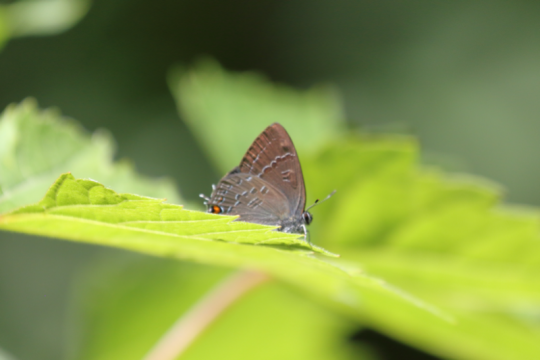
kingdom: Animalia
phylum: Arthropoda
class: Insecta
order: Lepidoptera
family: Lycaenidae
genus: Satyrium
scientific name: Satyrium calanus
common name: Banded Hairstreak
